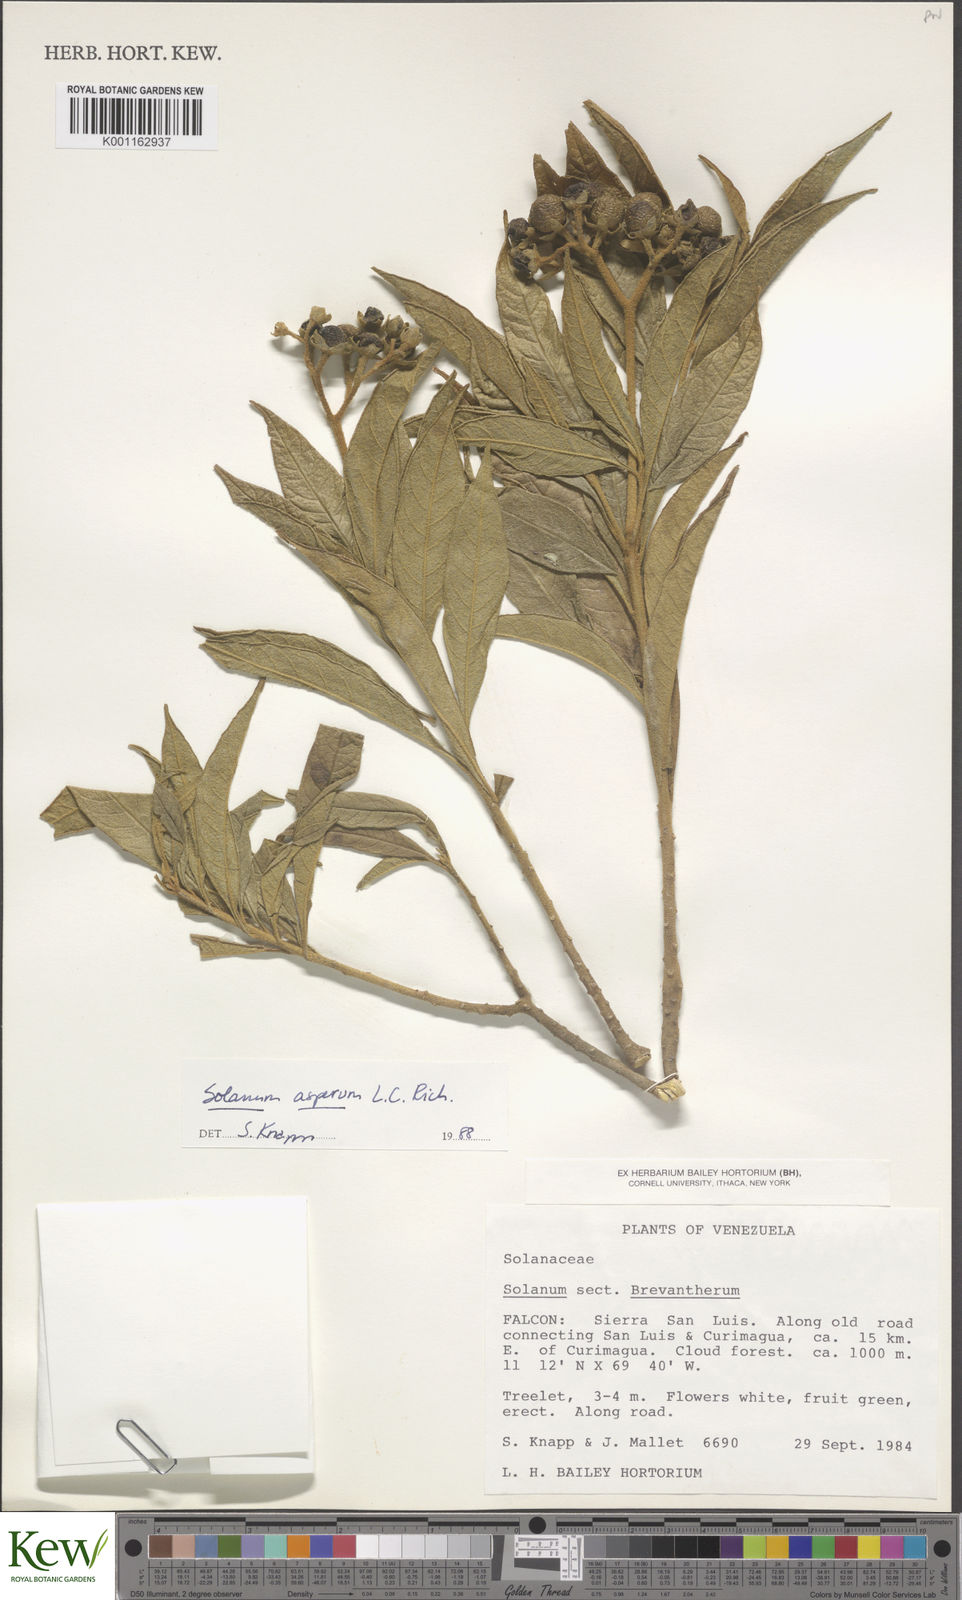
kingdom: Plantae
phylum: Tracheophyta
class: Magnoliopsida
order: Solanales
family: Solanaceae
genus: Solanum
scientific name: Solanum asperum
